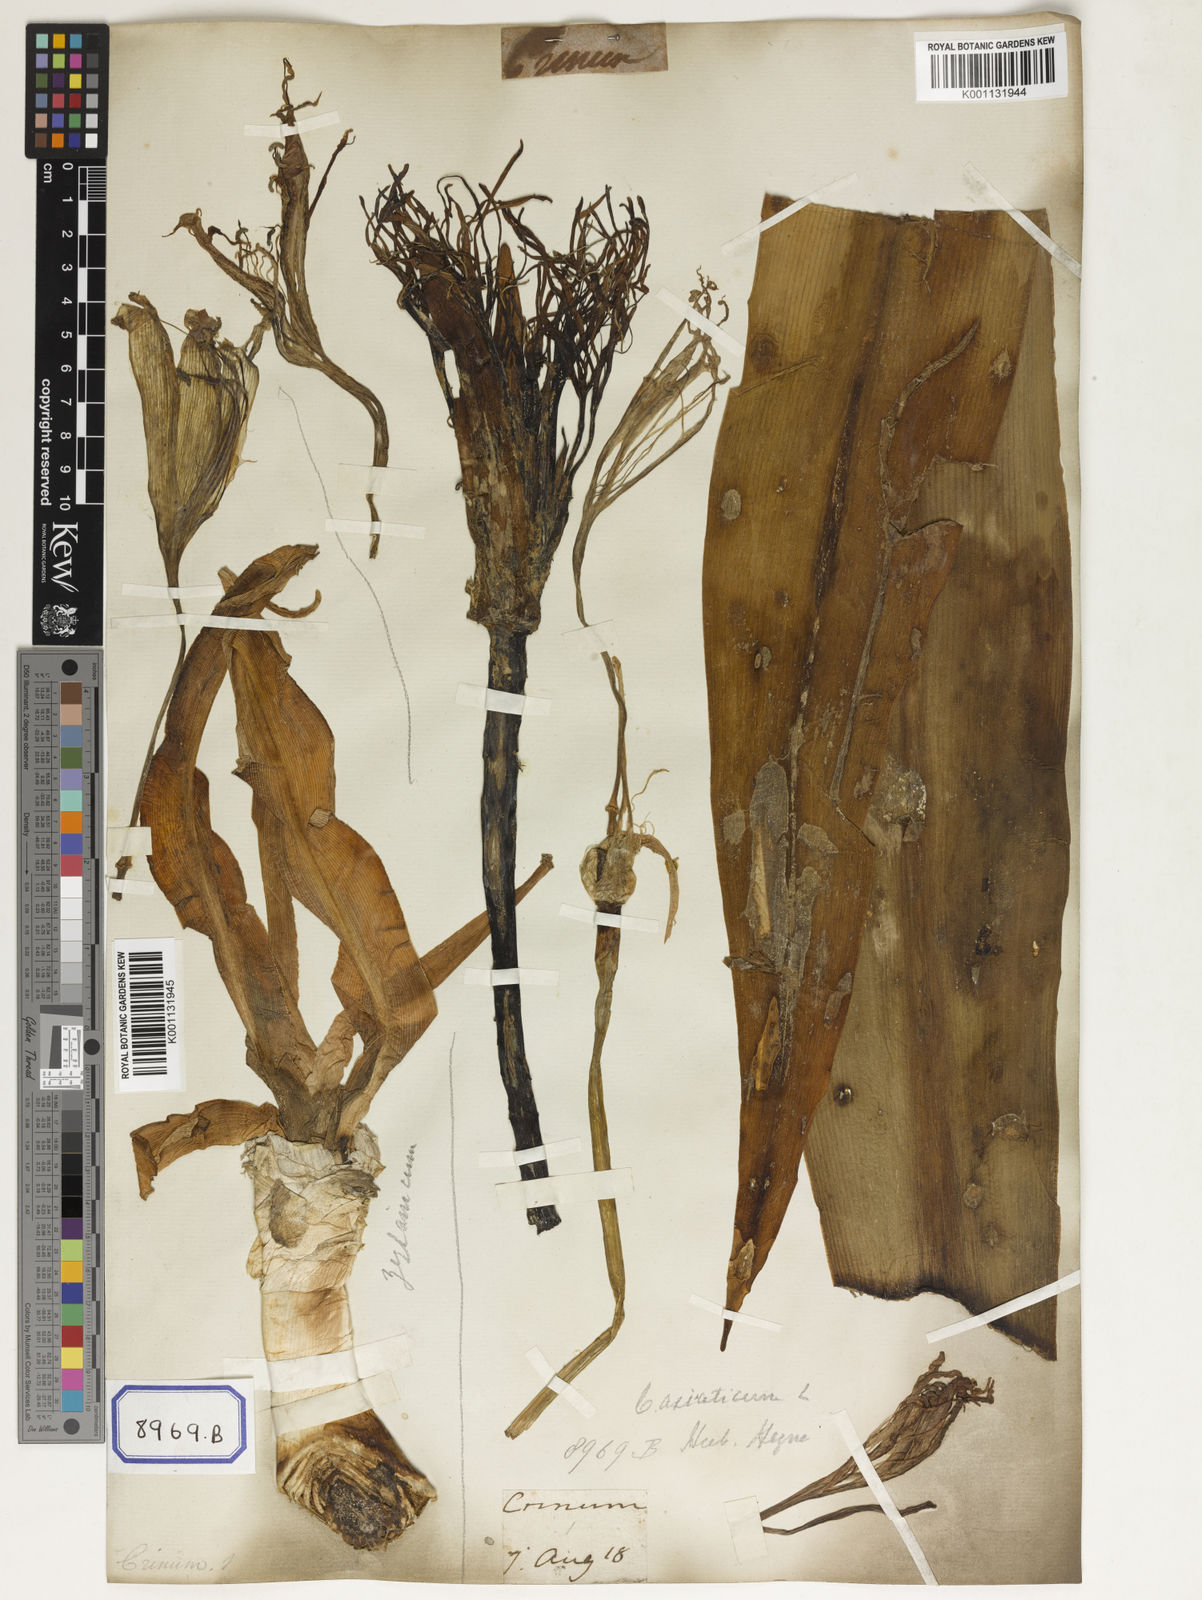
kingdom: Plantae
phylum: Tracheophyta
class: Liliopsida
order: Asparagales
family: Amaryllidaceae
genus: Crinum
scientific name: Crinum asiaticum
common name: Poisonbulb
